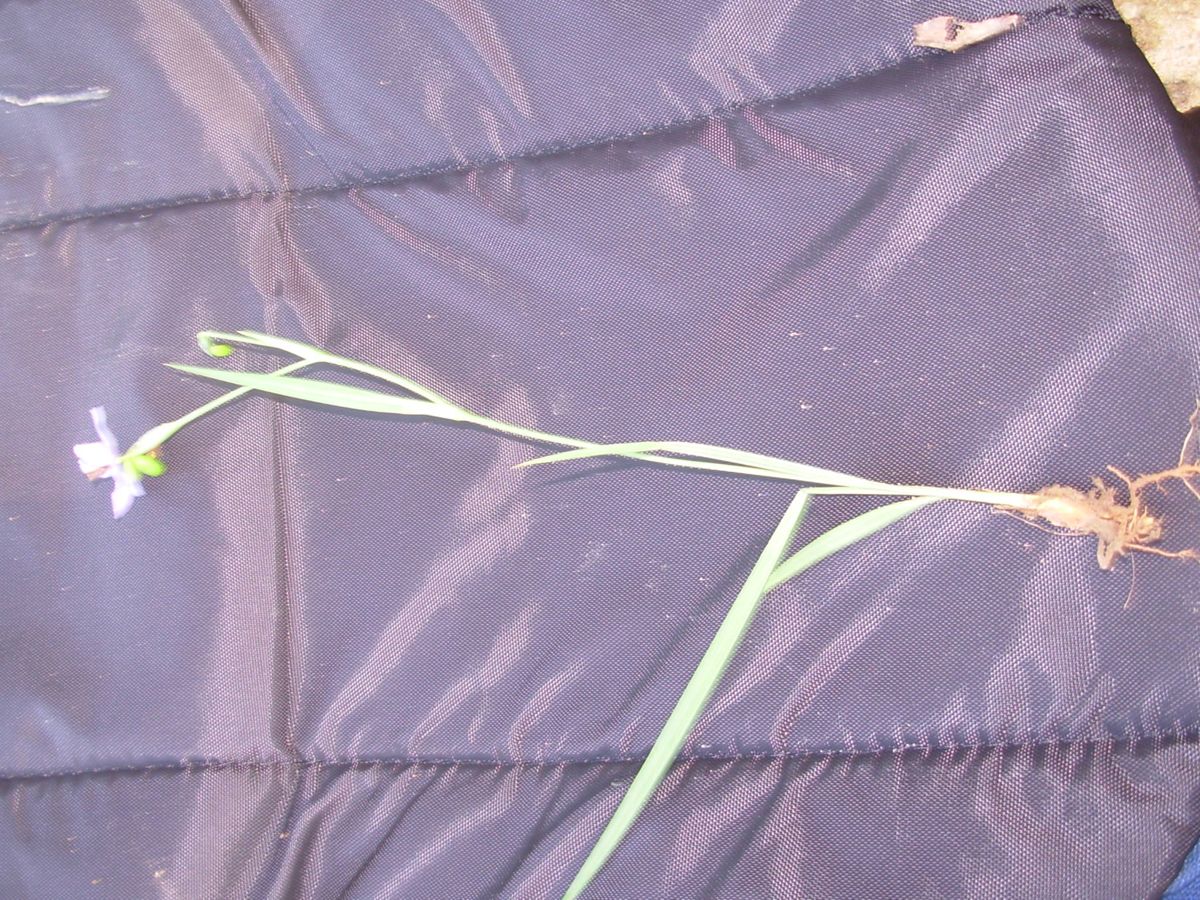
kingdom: Plantae
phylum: Tracheophyta
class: Liliopsida
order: Asparagales
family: Iridaceae
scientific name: Iridaceae
